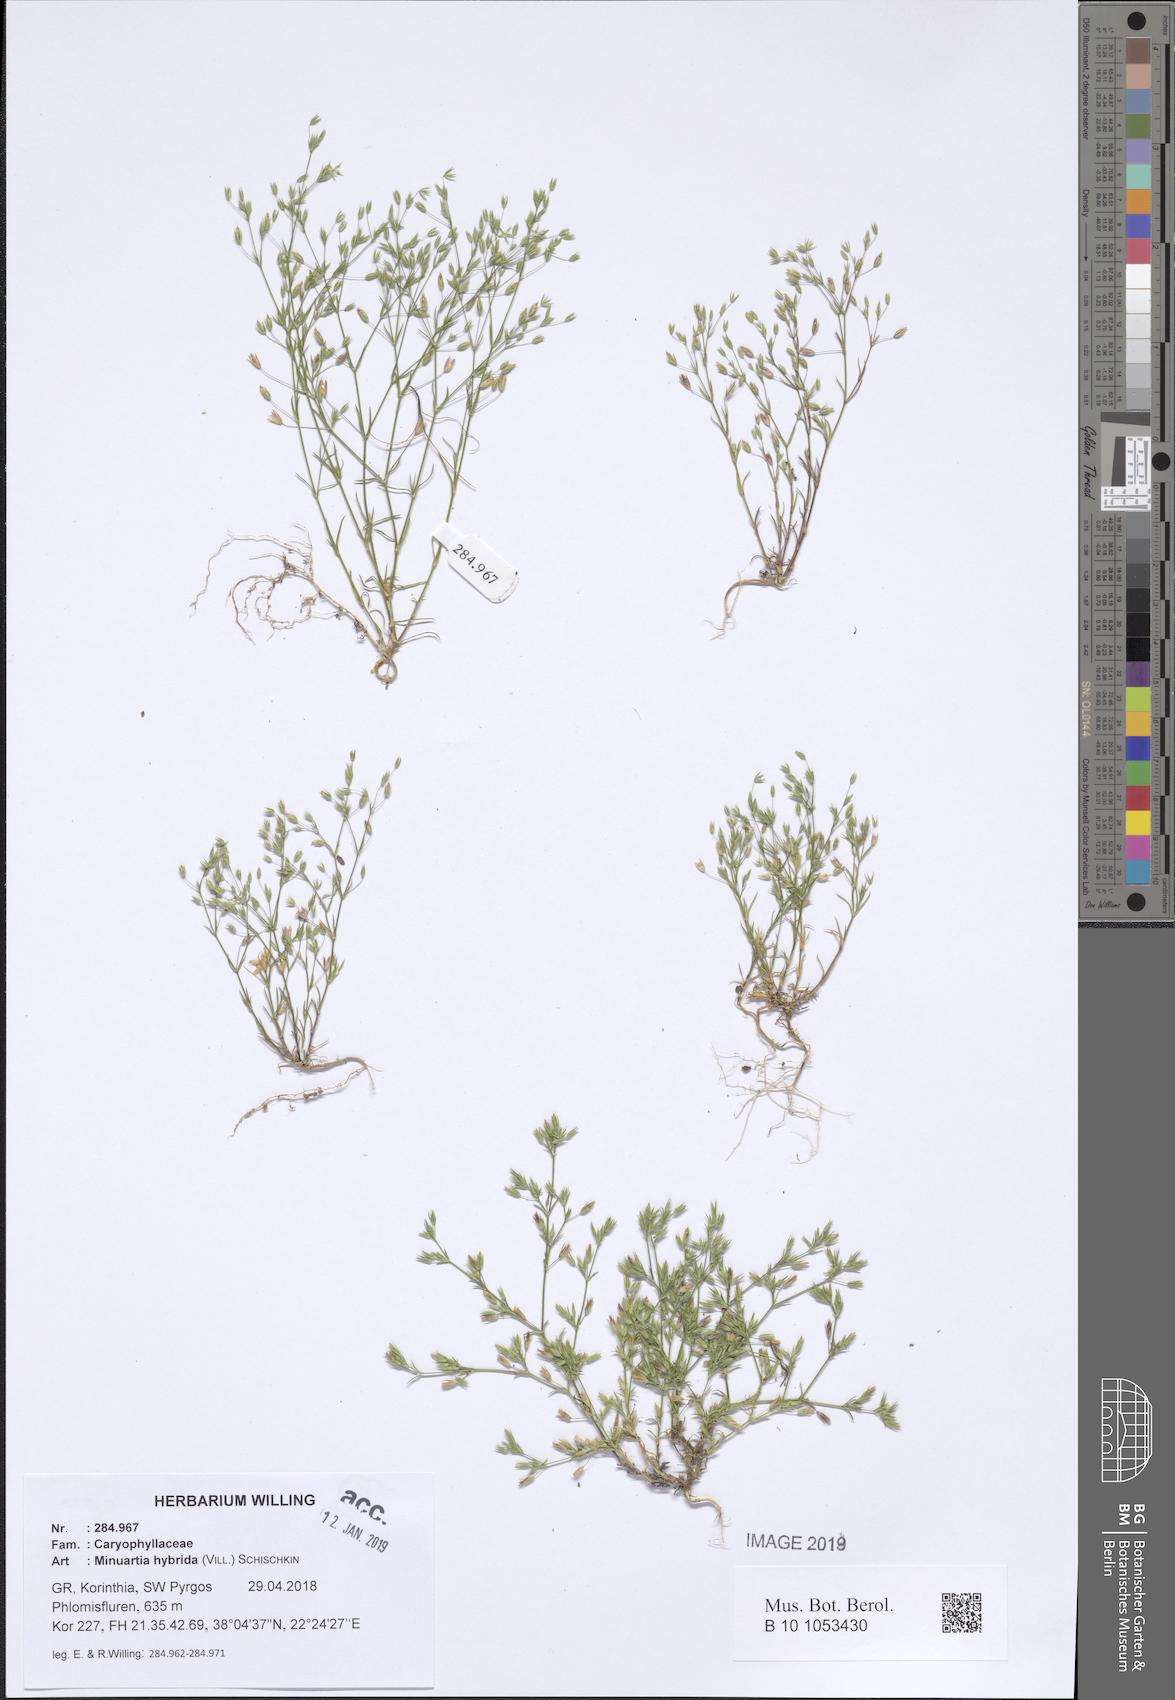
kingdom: Plantae
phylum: Tracheophyta
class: Magnoliopsida
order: Caryophyllales
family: Caryophyllaceae
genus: Sabulina
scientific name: Sabulina tenuifolia
